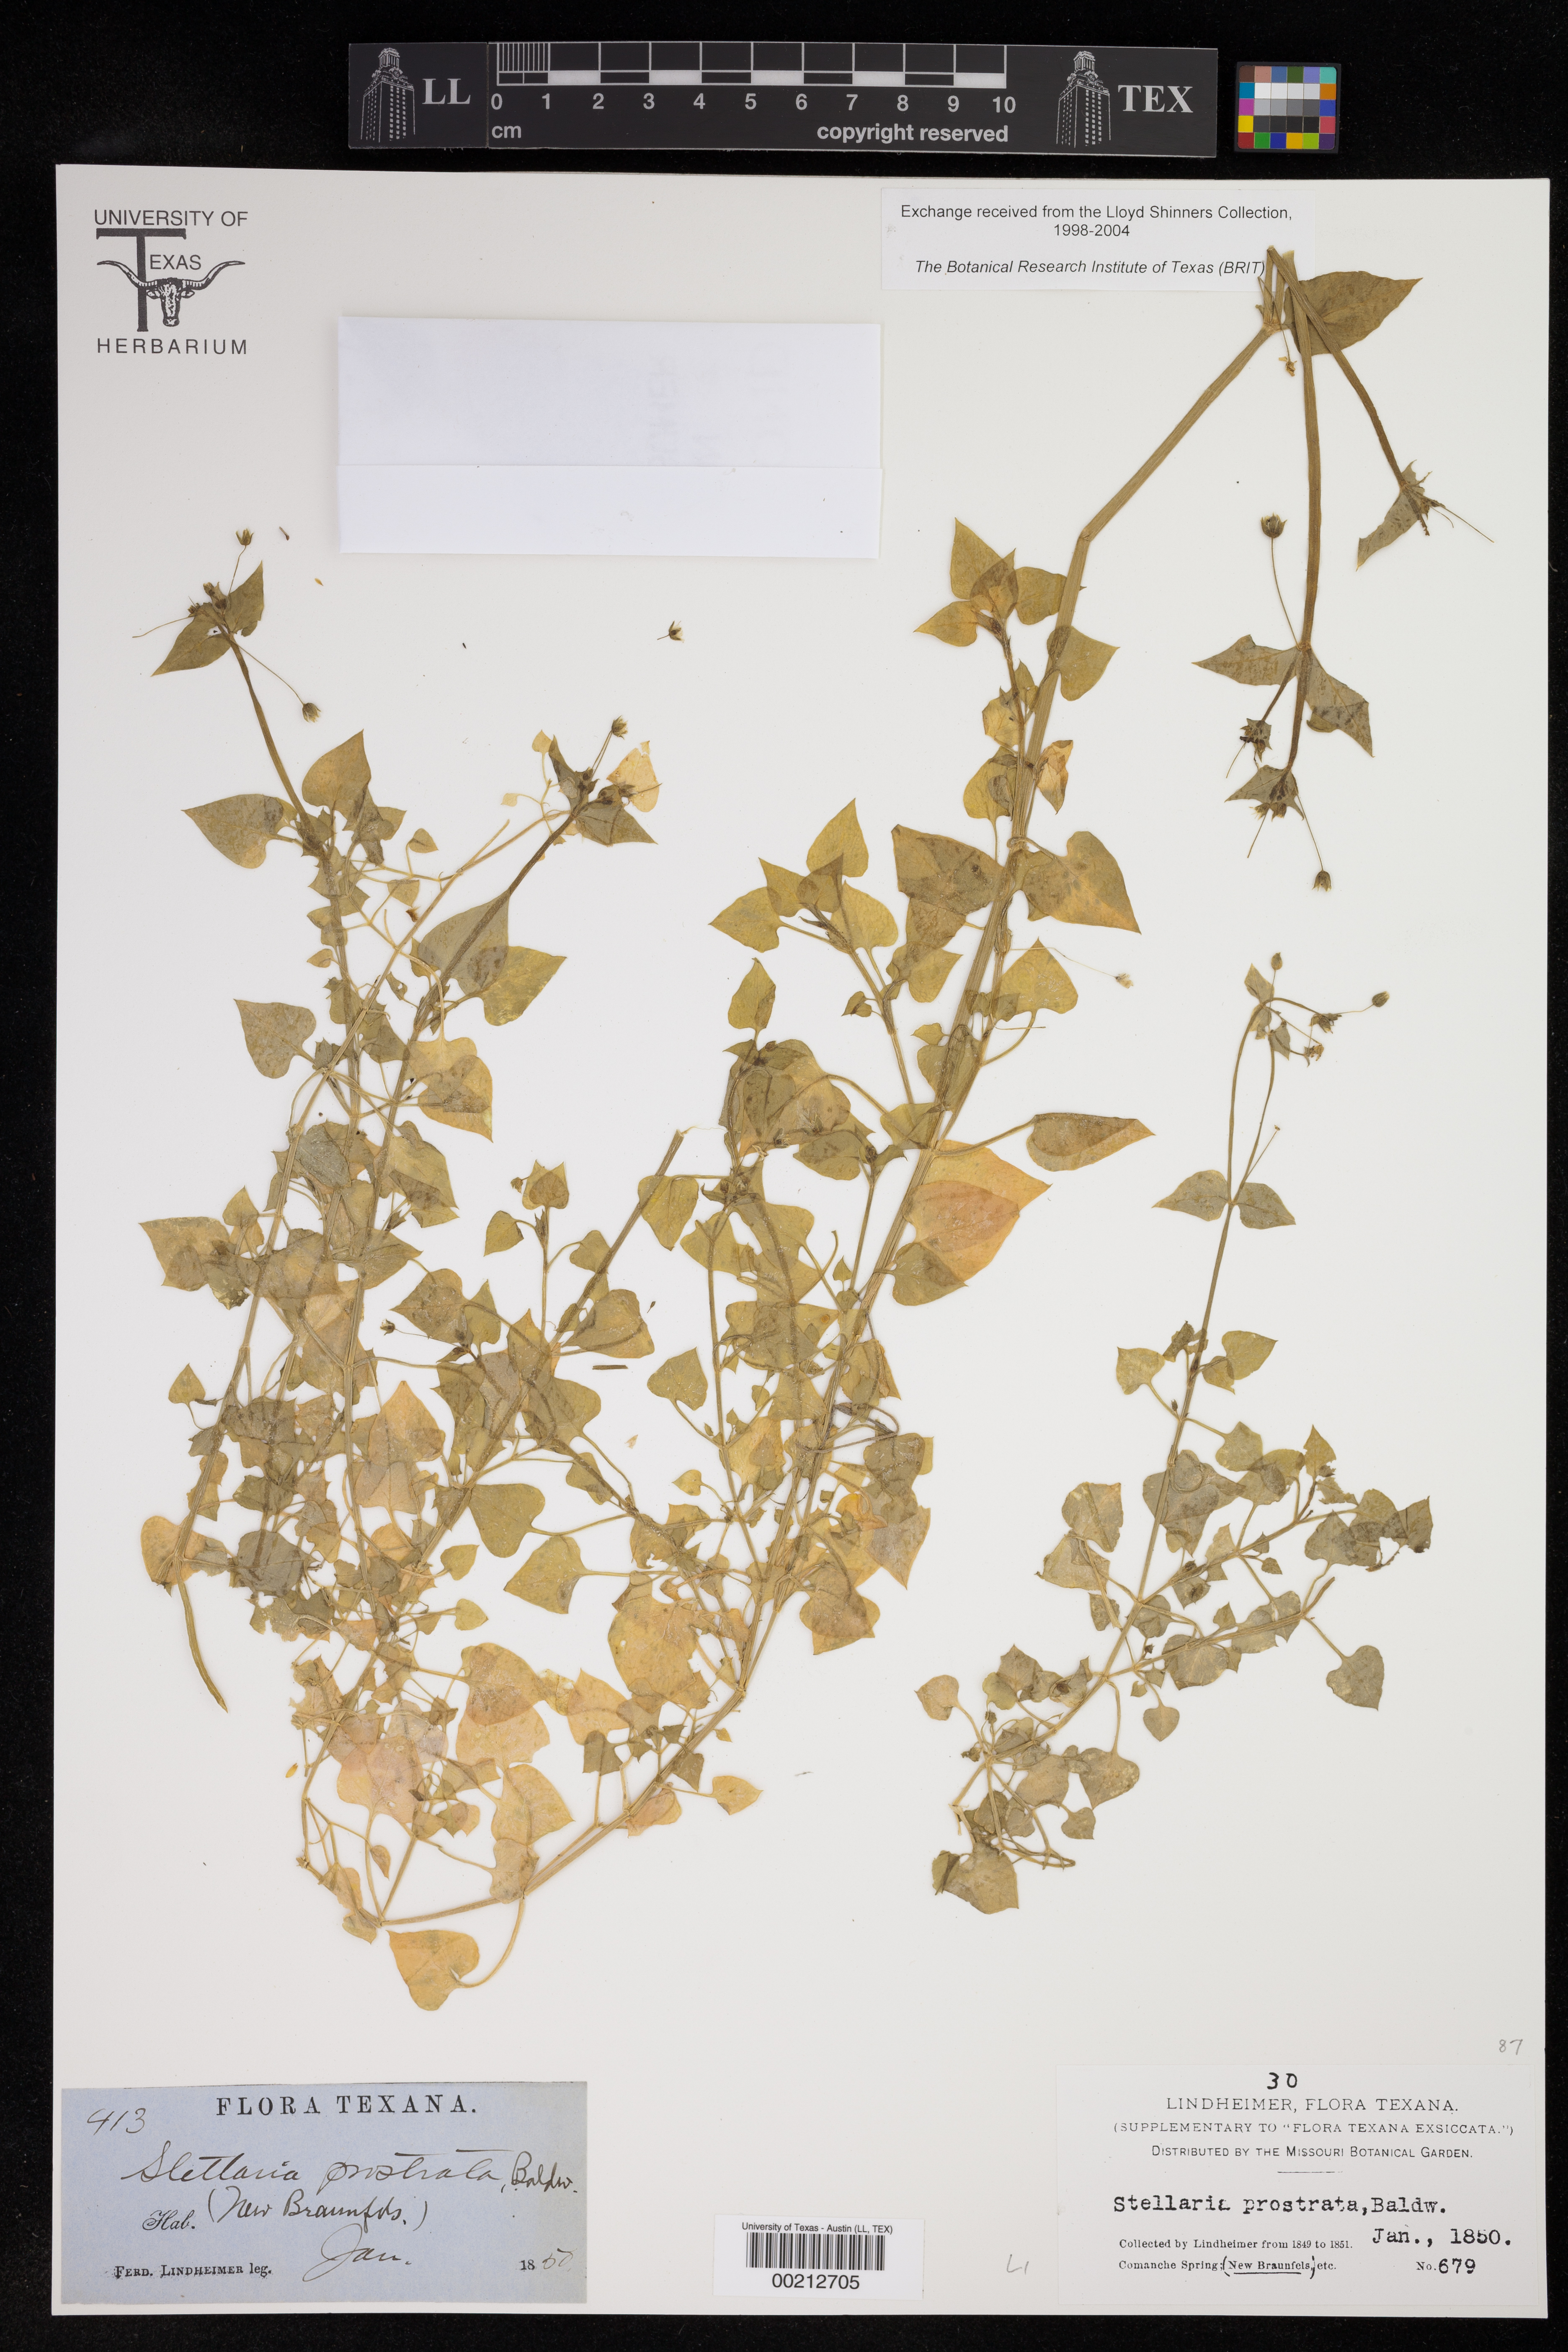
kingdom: Plantae
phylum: Tracheophyta
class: Magnoliopsida
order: Caryophyllales
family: Caryophyllaceae
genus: Stellaria
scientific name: Stellaria cuspidata
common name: Mexican chickweed
